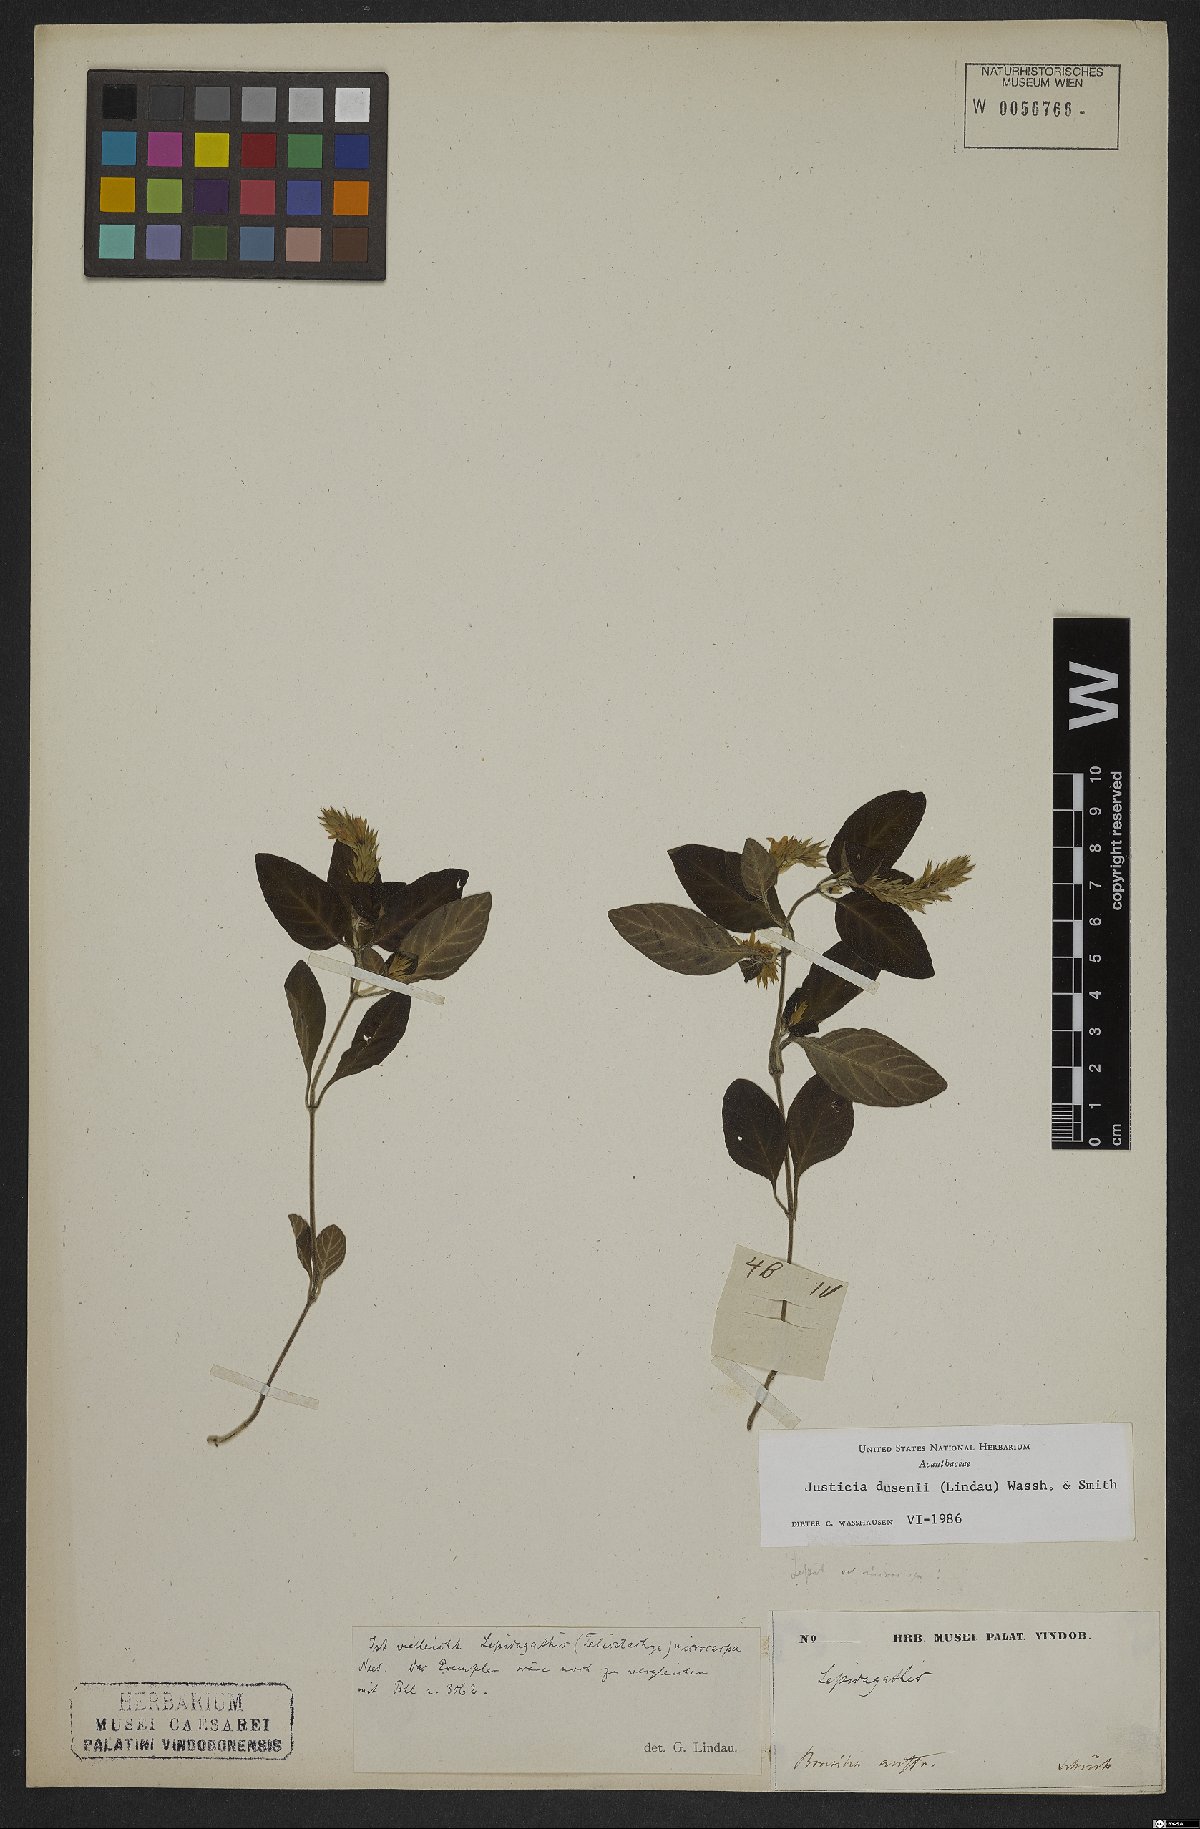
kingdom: Plantae
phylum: Tracheophyta
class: Magnoliopsida
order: Lamiales
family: Acanthaceae
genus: Justicia
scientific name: Justicia dusenii
